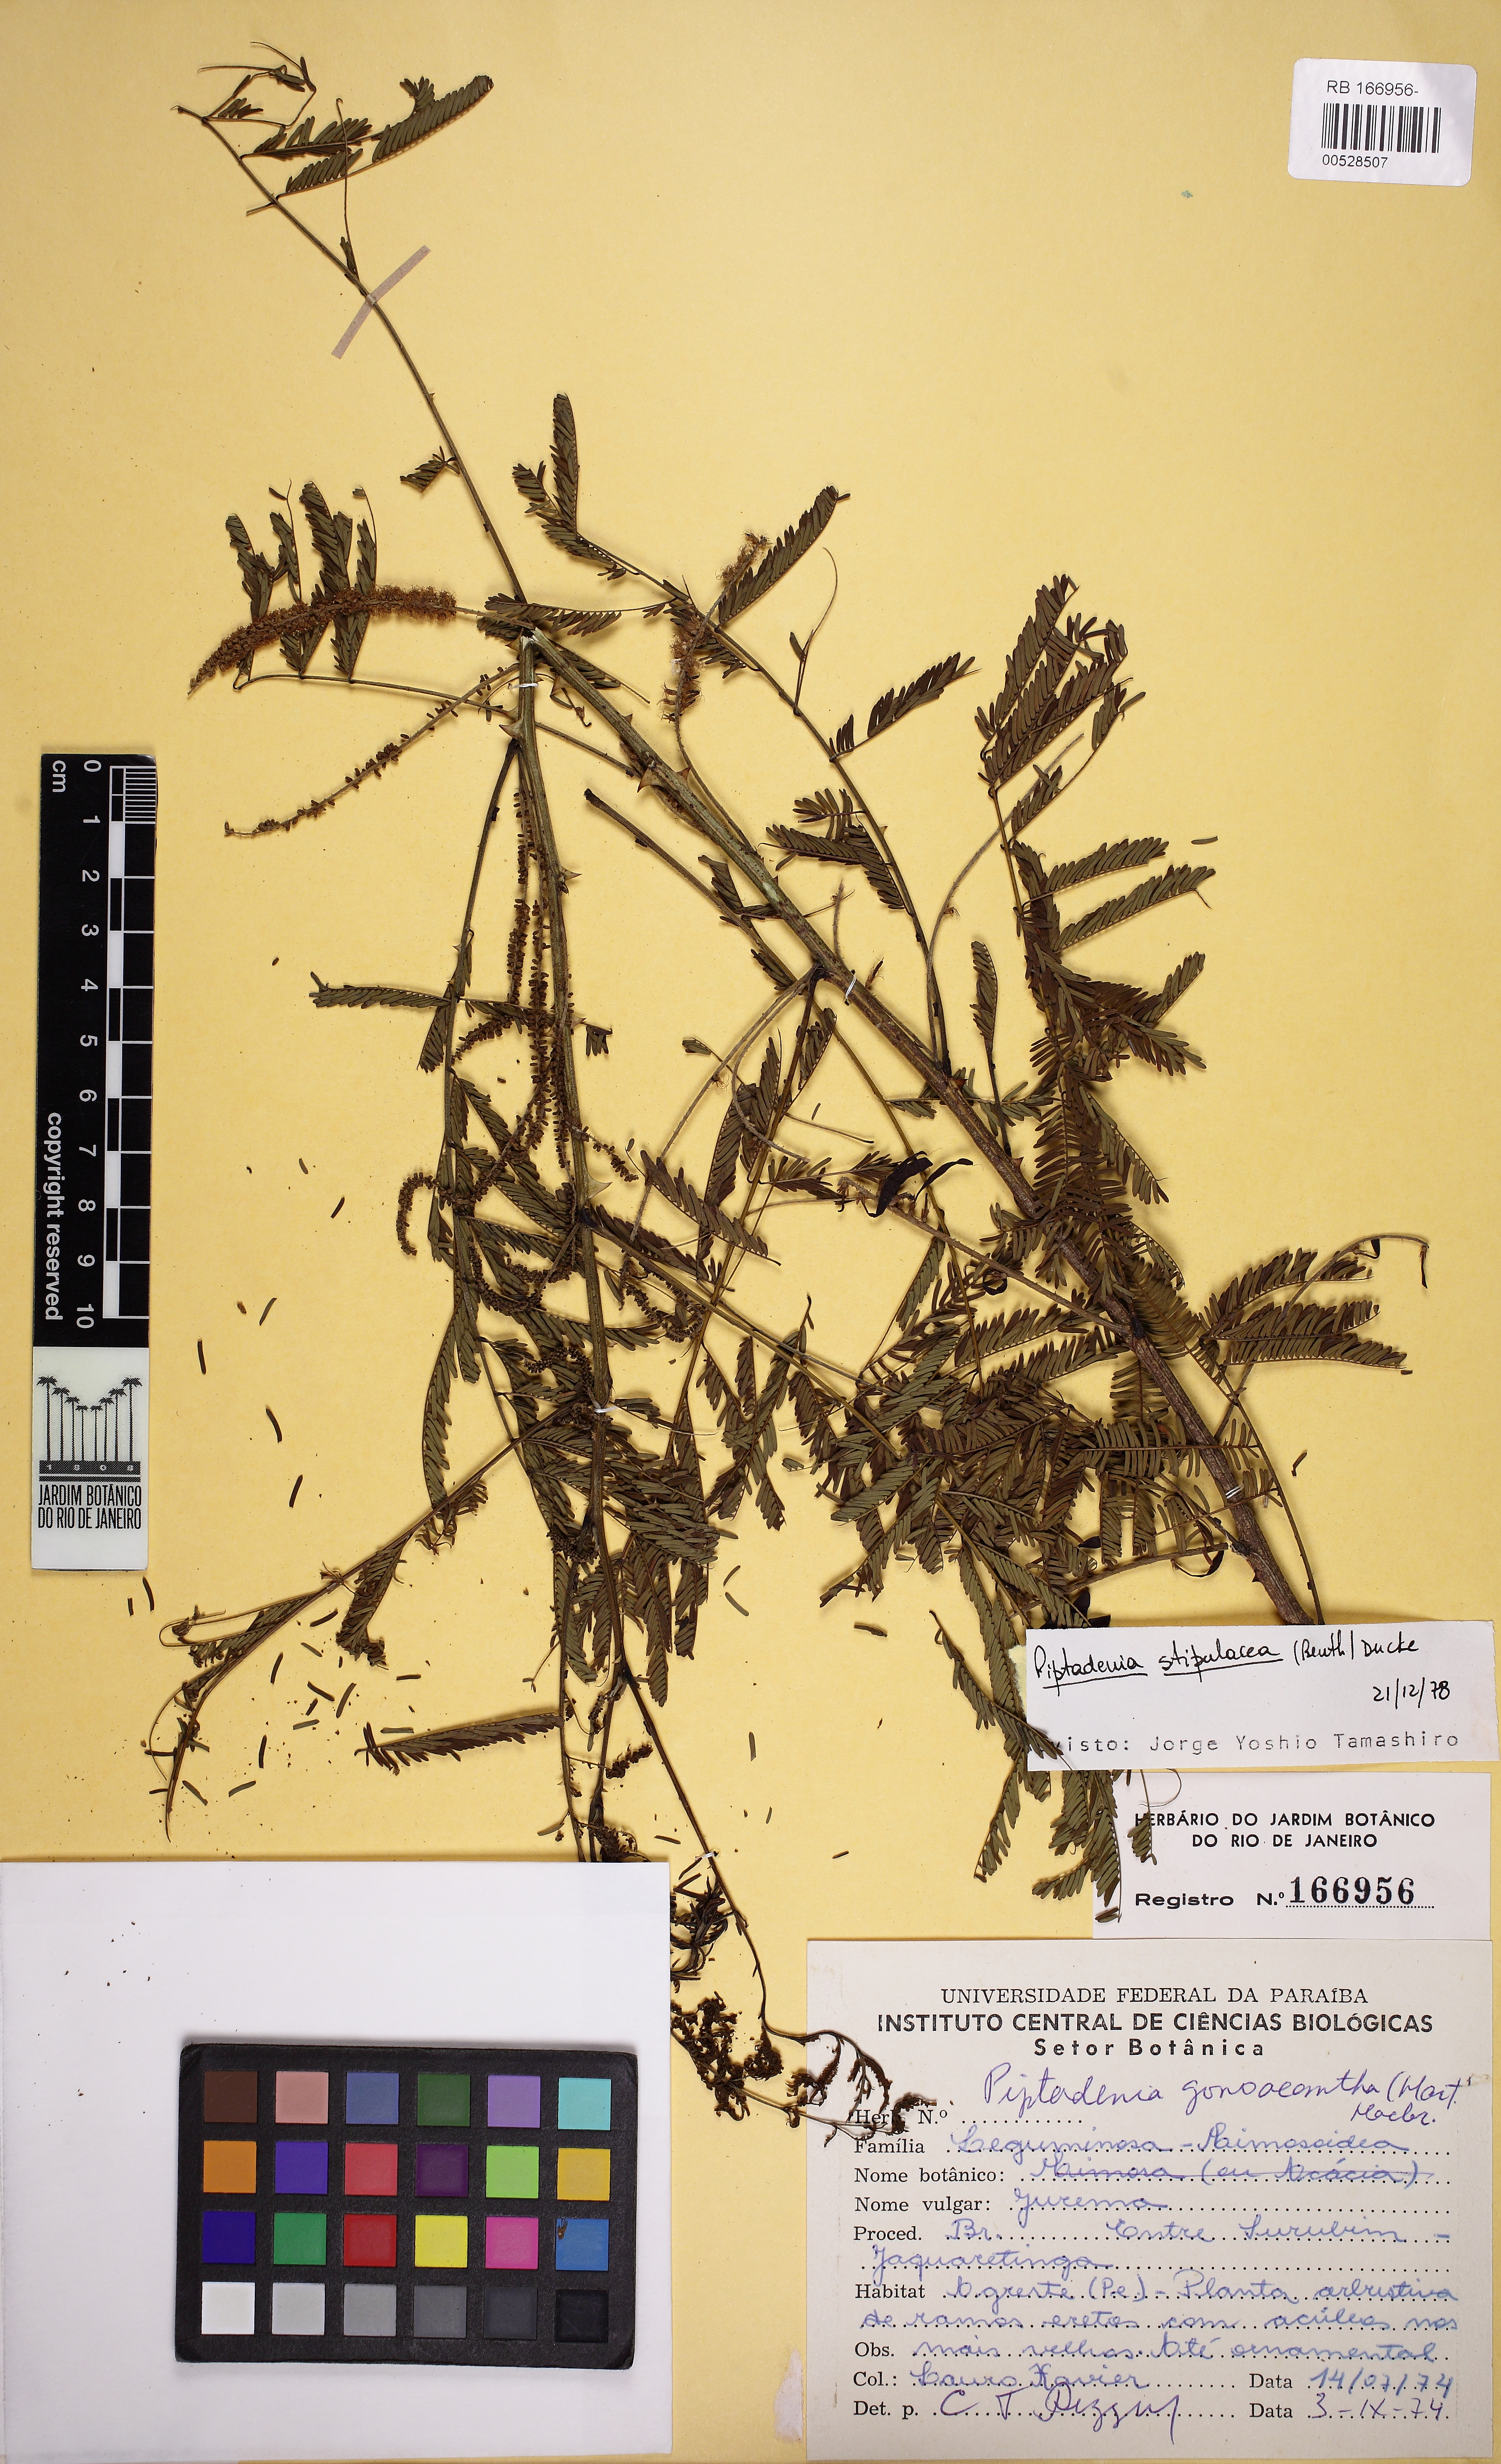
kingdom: Plantae
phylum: Tracheophyta
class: Magnoliopsida
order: Fabales
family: Fabaceae
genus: Piptadenia
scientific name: Piptadenia retusa
